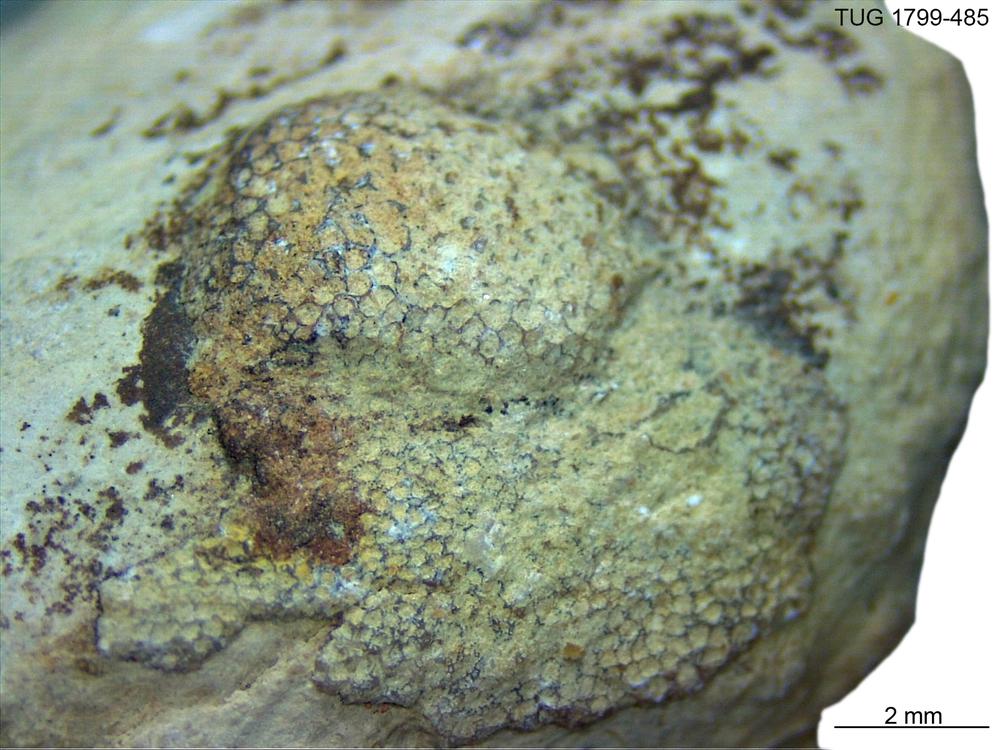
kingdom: Animalia
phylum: Bryozoa
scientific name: Bryozoa
